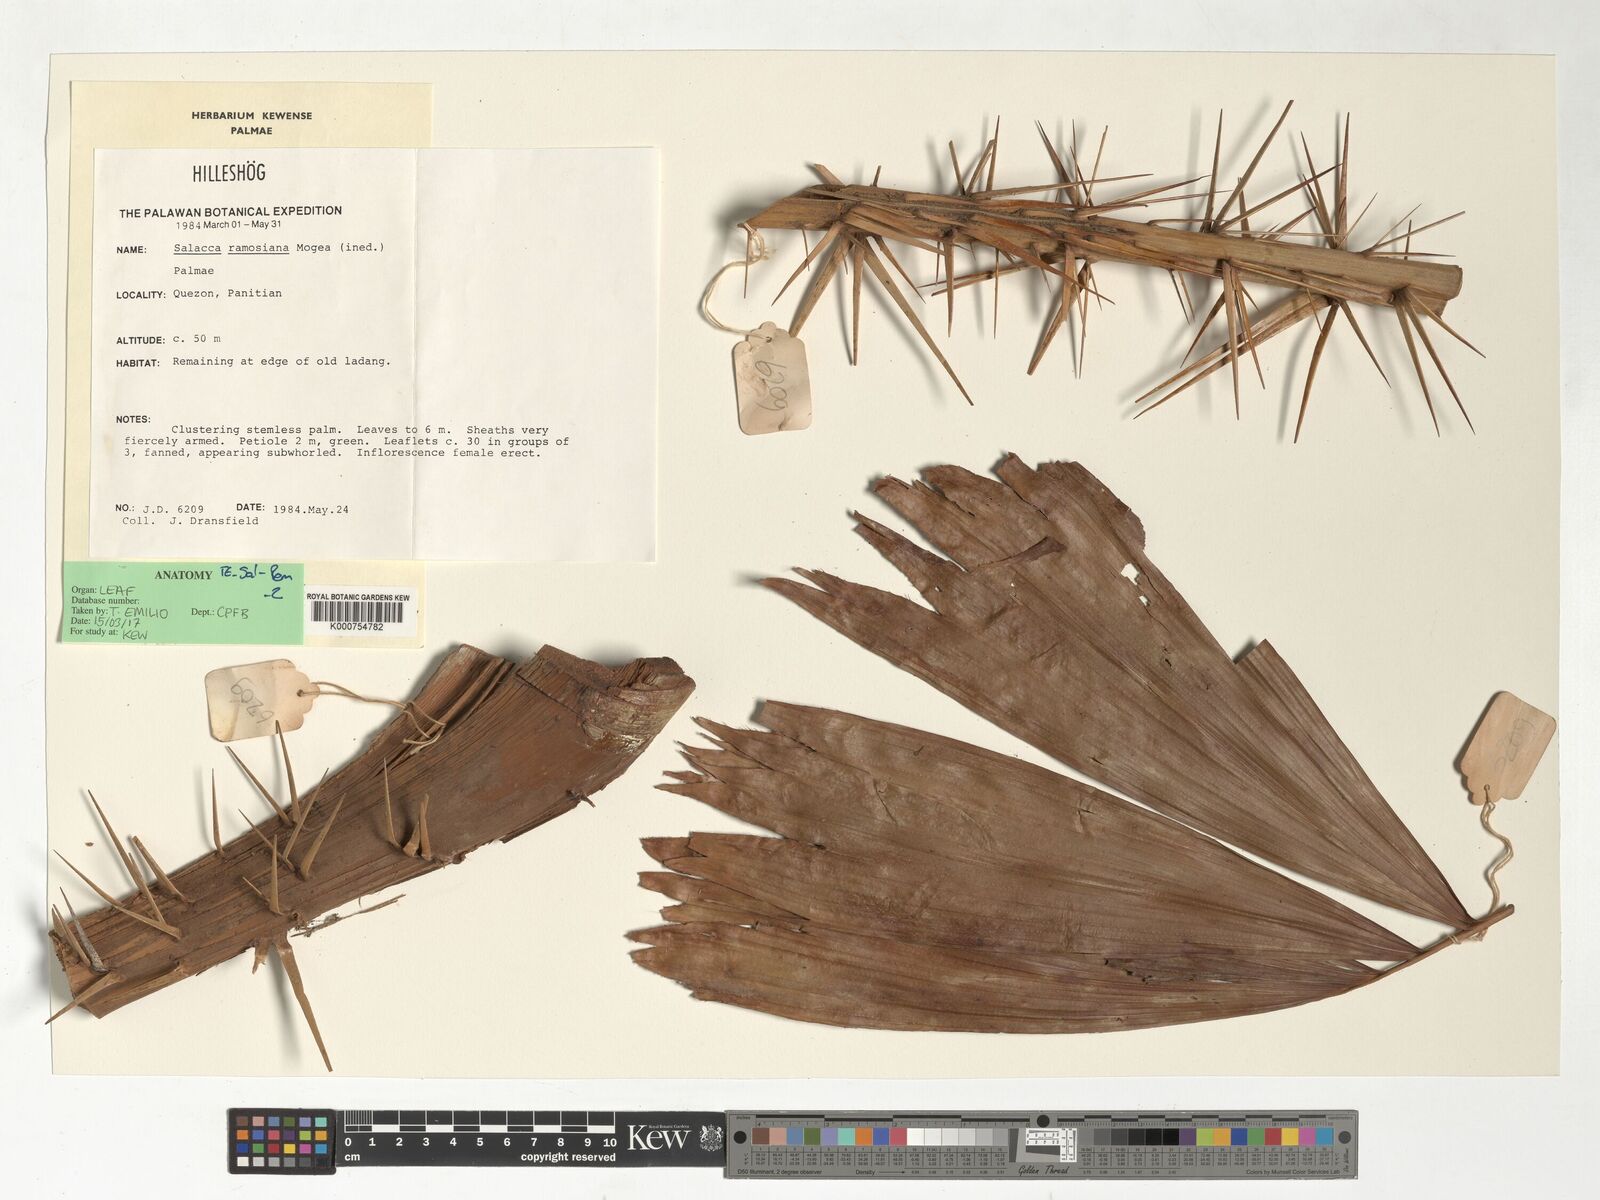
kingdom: Plantae
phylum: Tracheophyta
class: Liliopsida
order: Arecales
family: Arecaceae
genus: Salacca
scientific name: Salacca ramosiana
